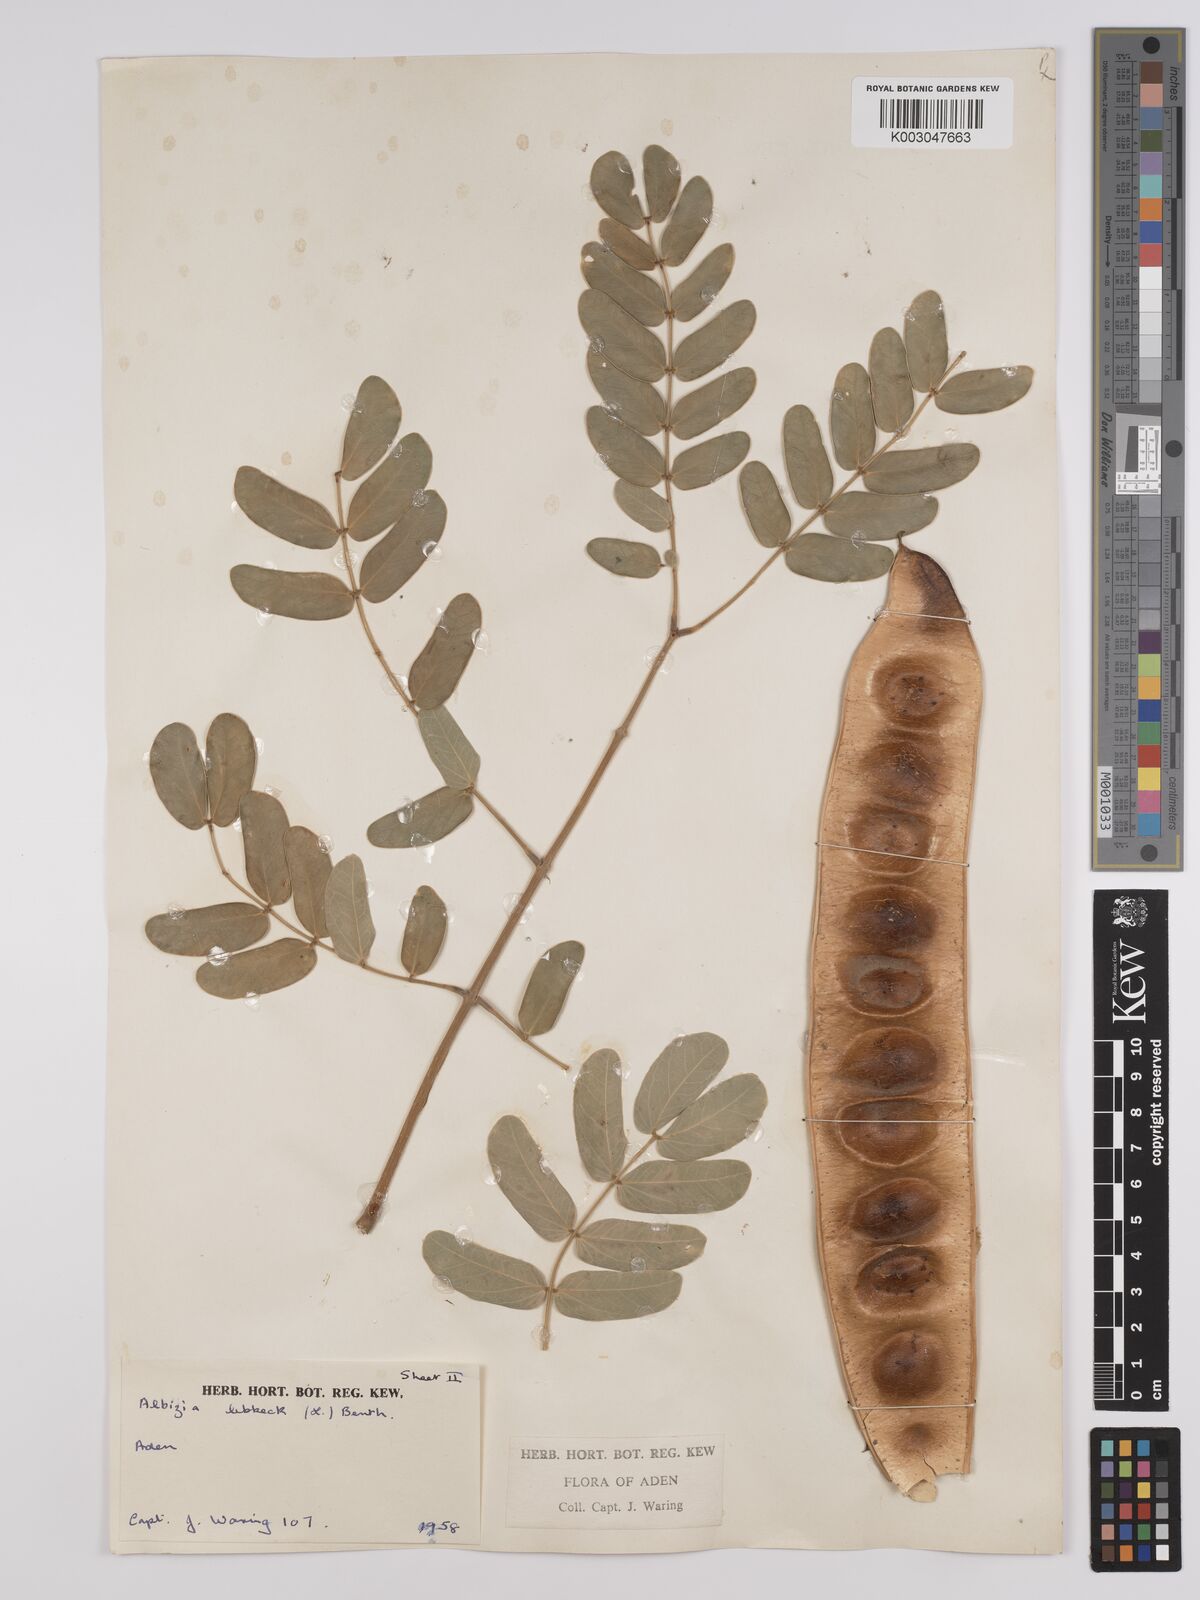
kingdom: Plantae
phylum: Tracheophyta
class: Magnoliopsida
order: Fabales
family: Fabaceae
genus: Albizia
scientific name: Albizia lebbeck
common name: Woman's tongue
